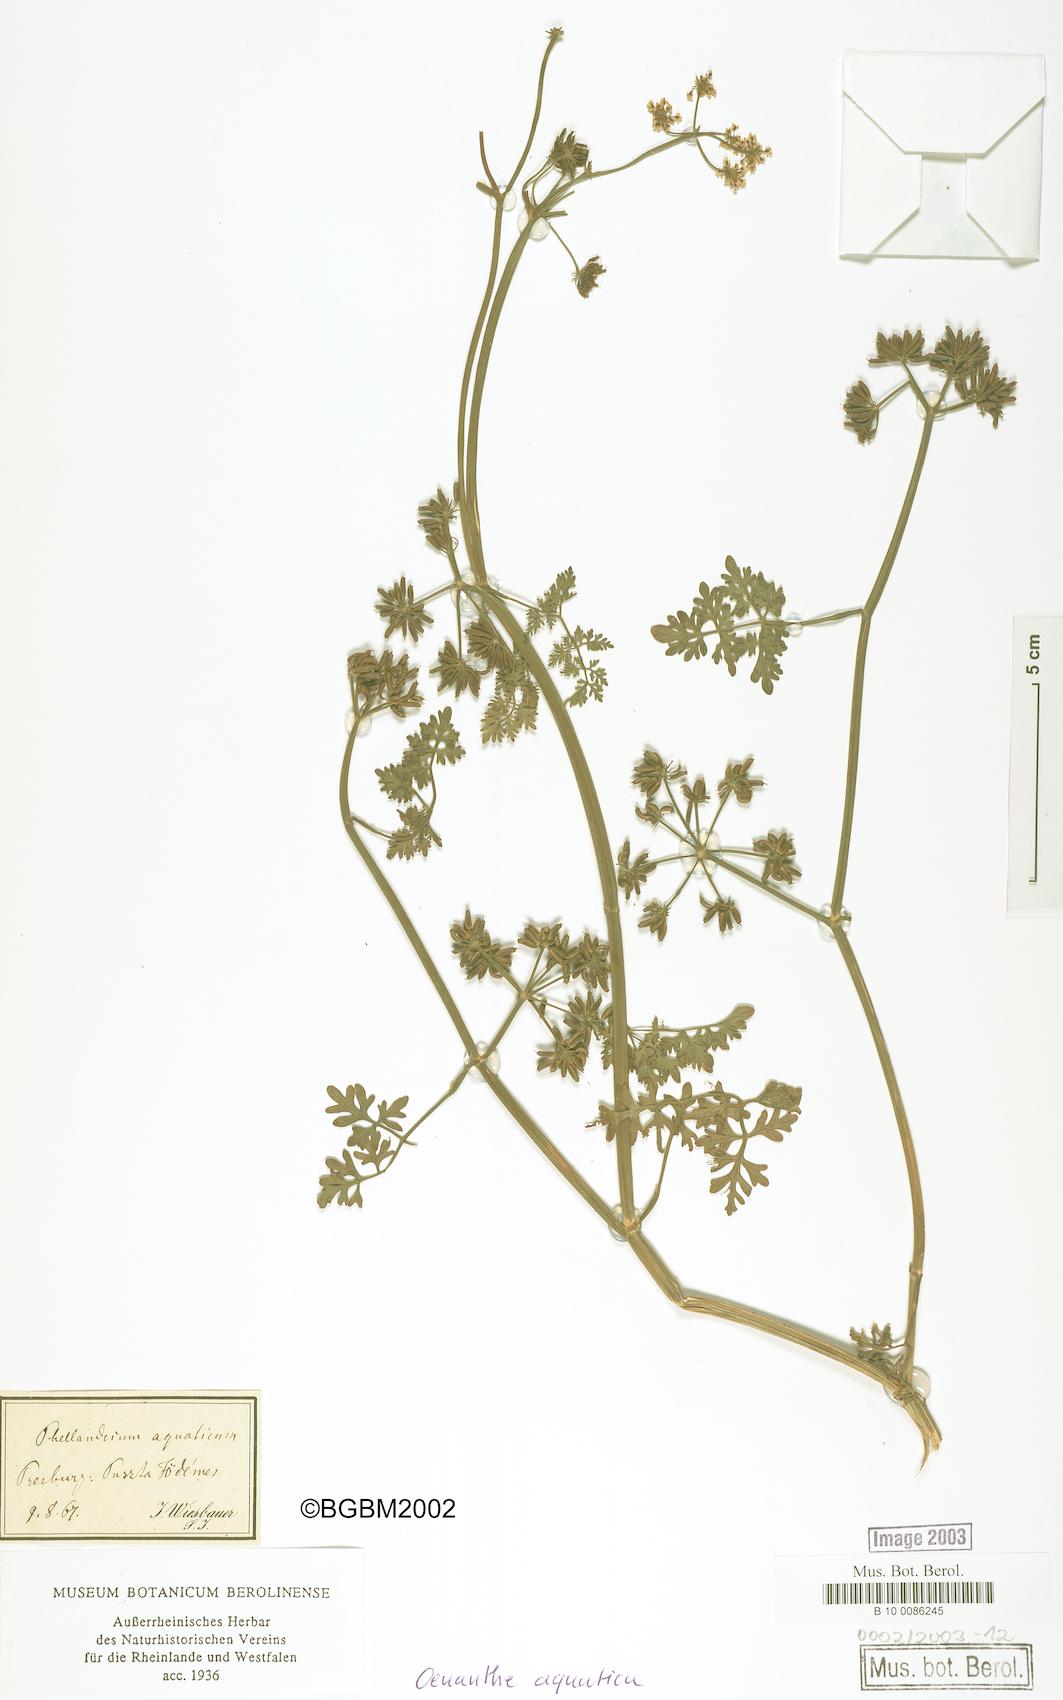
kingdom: Plantae
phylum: Tracheophyta
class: Magnoliopsida
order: Apiales
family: Apiaceae
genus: Oenanthe
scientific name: Oenanthe aquatica
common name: Fine-leaved water-dropwort
